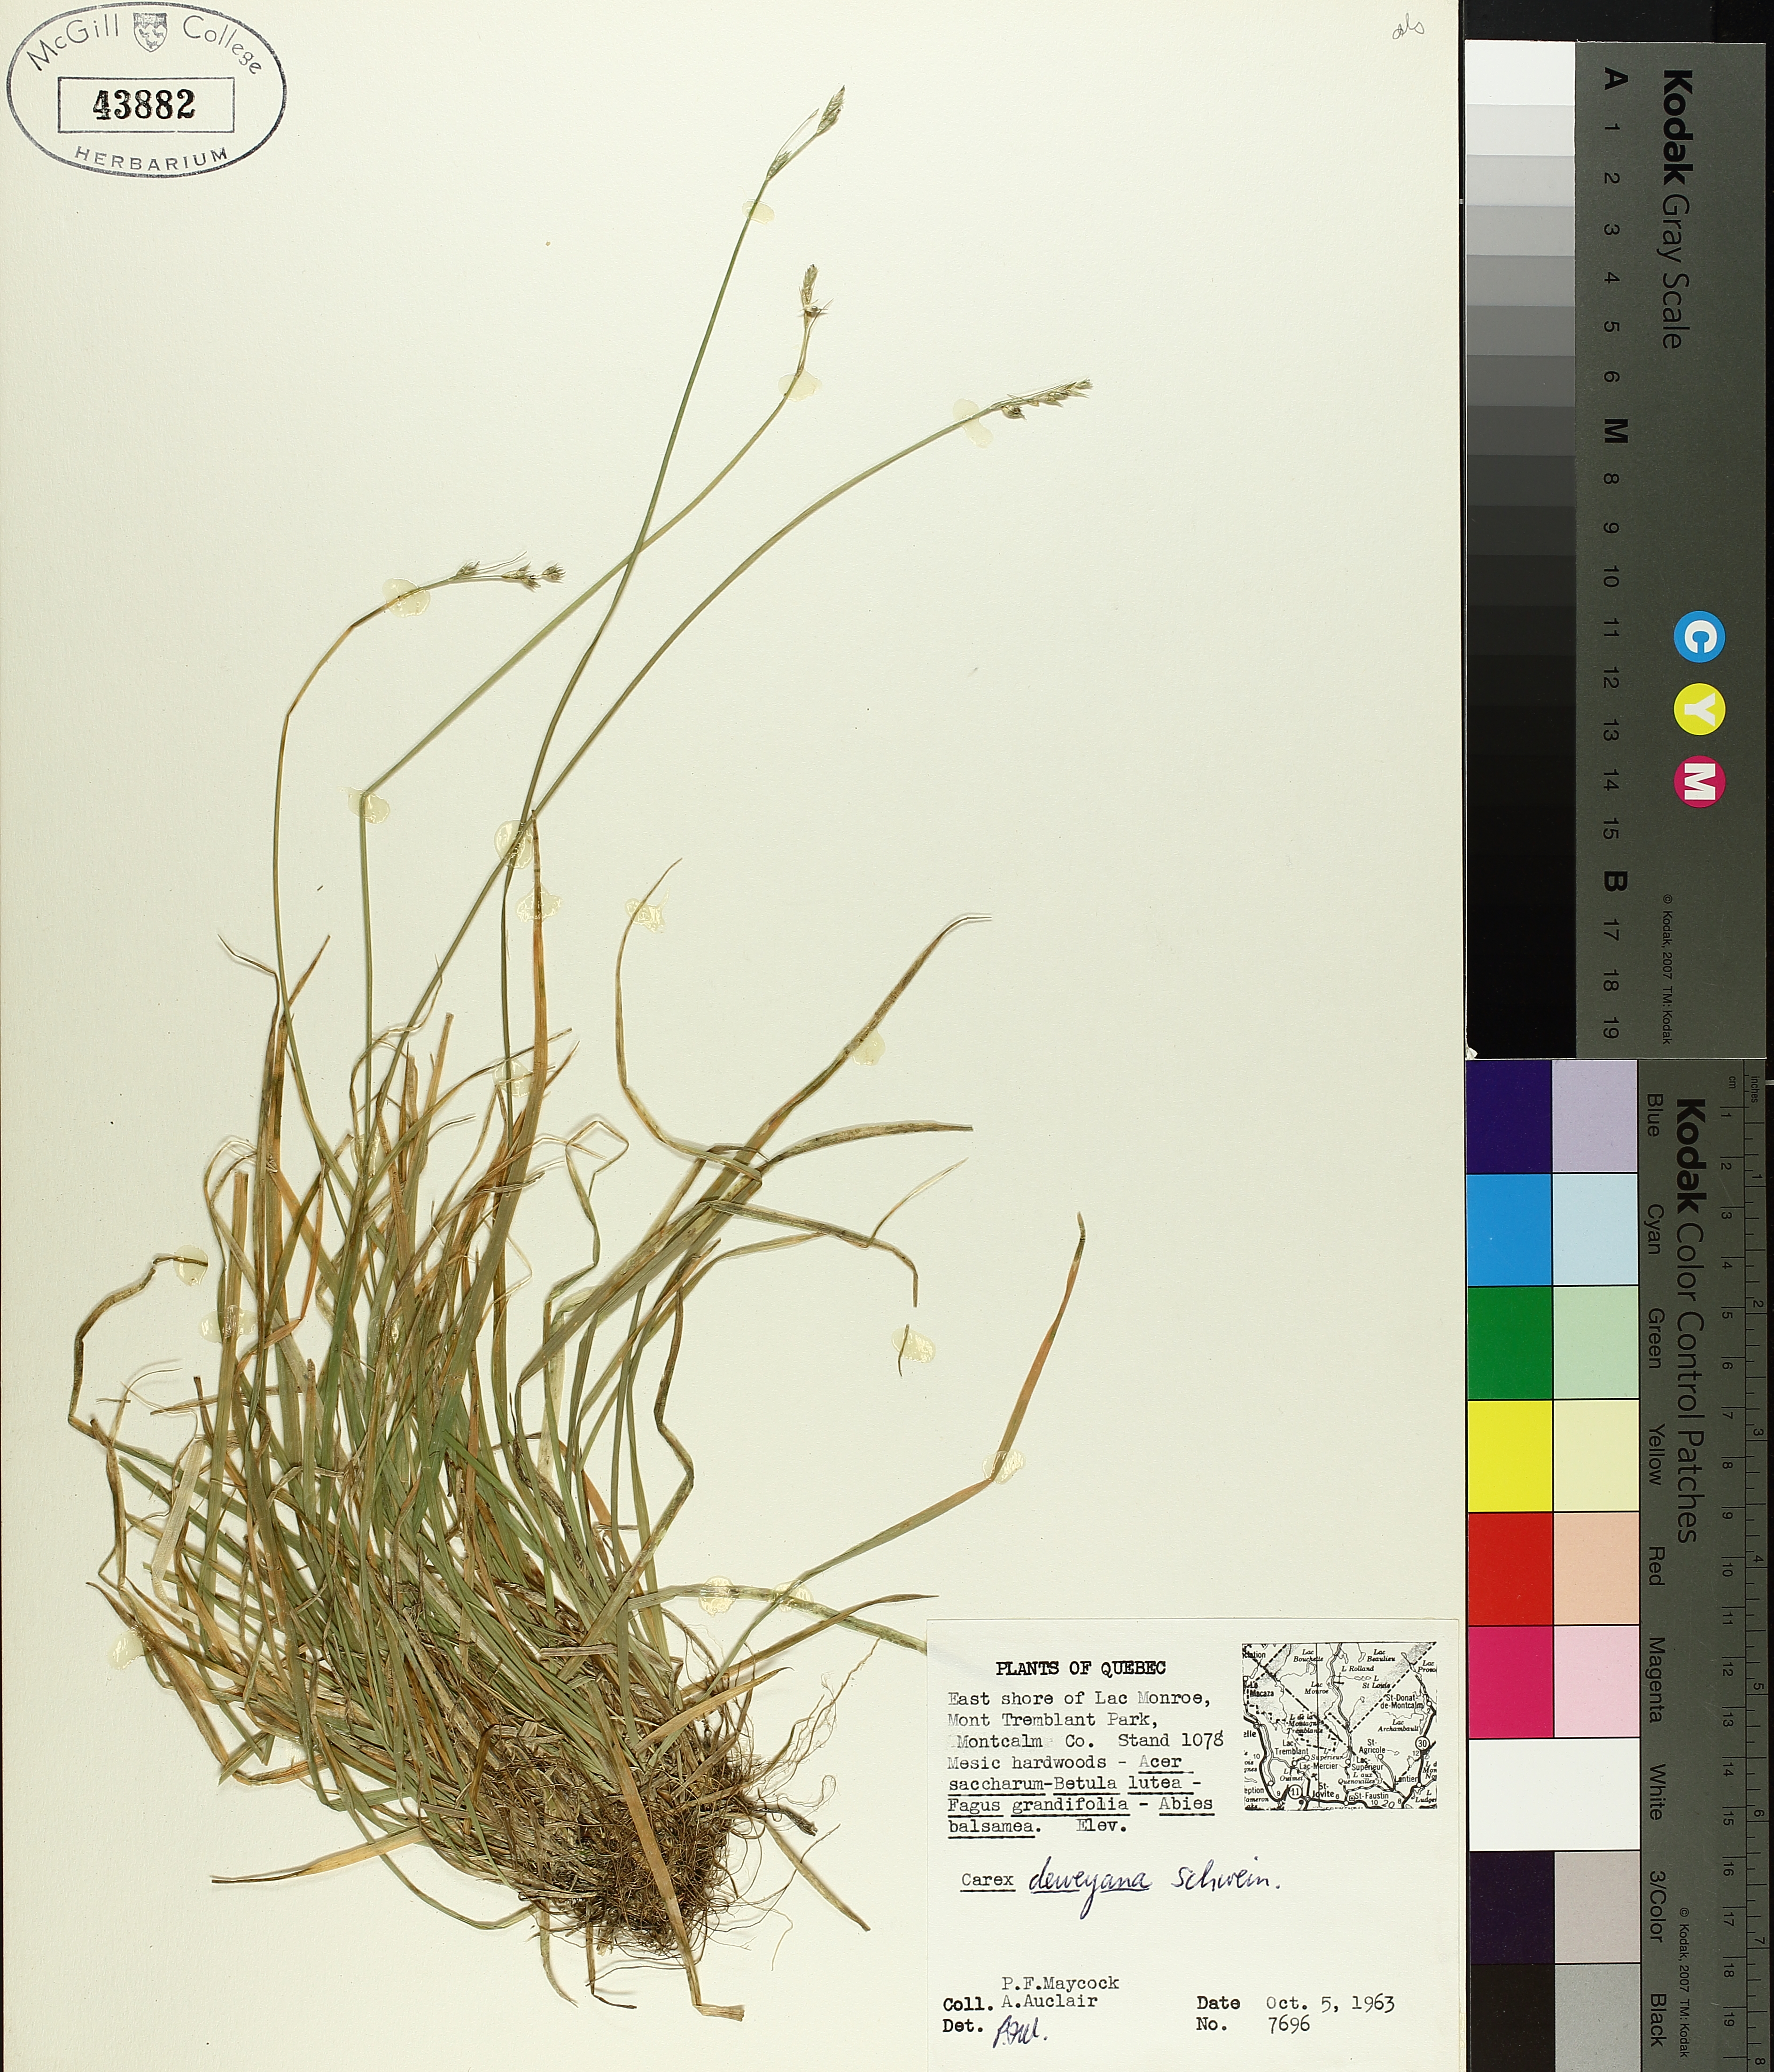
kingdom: Plantae
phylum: Tracheophyta
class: Liliopsida
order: Poales
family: Cyperaceae
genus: Carex
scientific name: Carex deweyana
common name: Dewey's sedge
